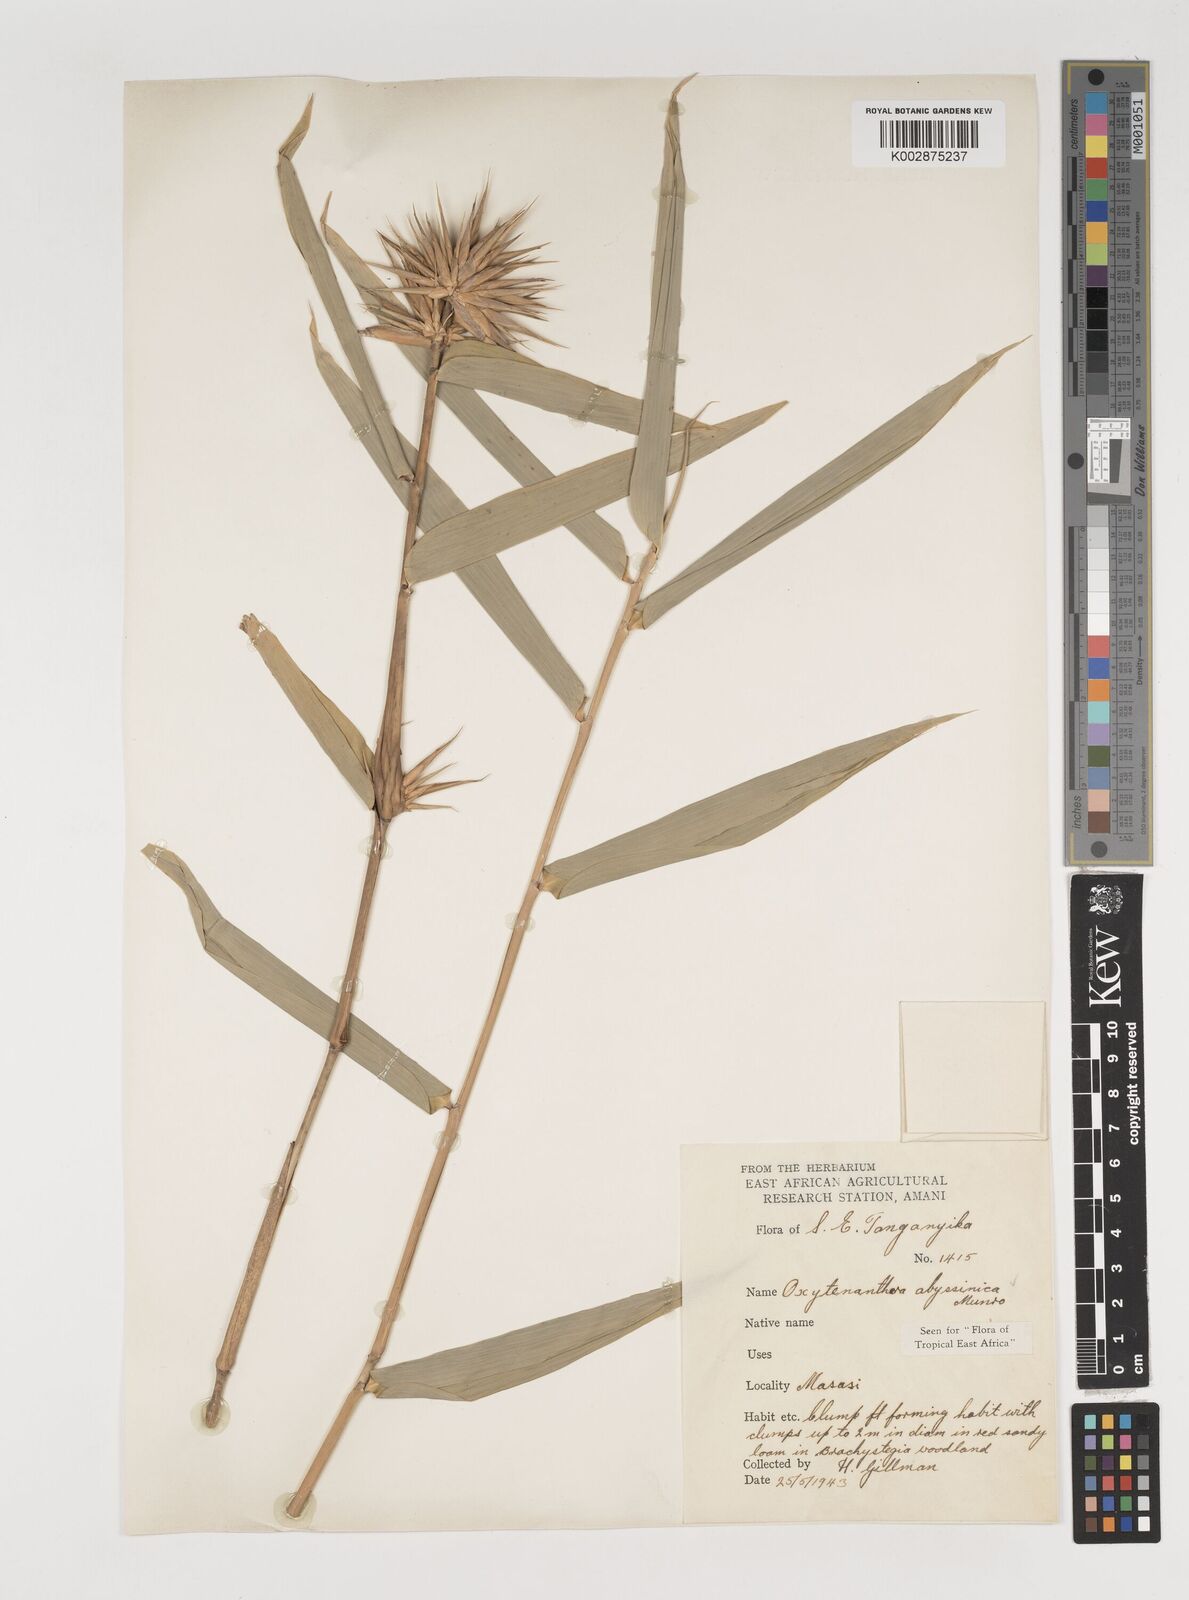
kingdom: Plantae
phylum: Tracheophyta
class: Liliopsida
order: Poales
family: Poaceae
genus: Oxytenanthera
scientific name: Oxytenanthera abyssinica
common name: Wine bamboo
